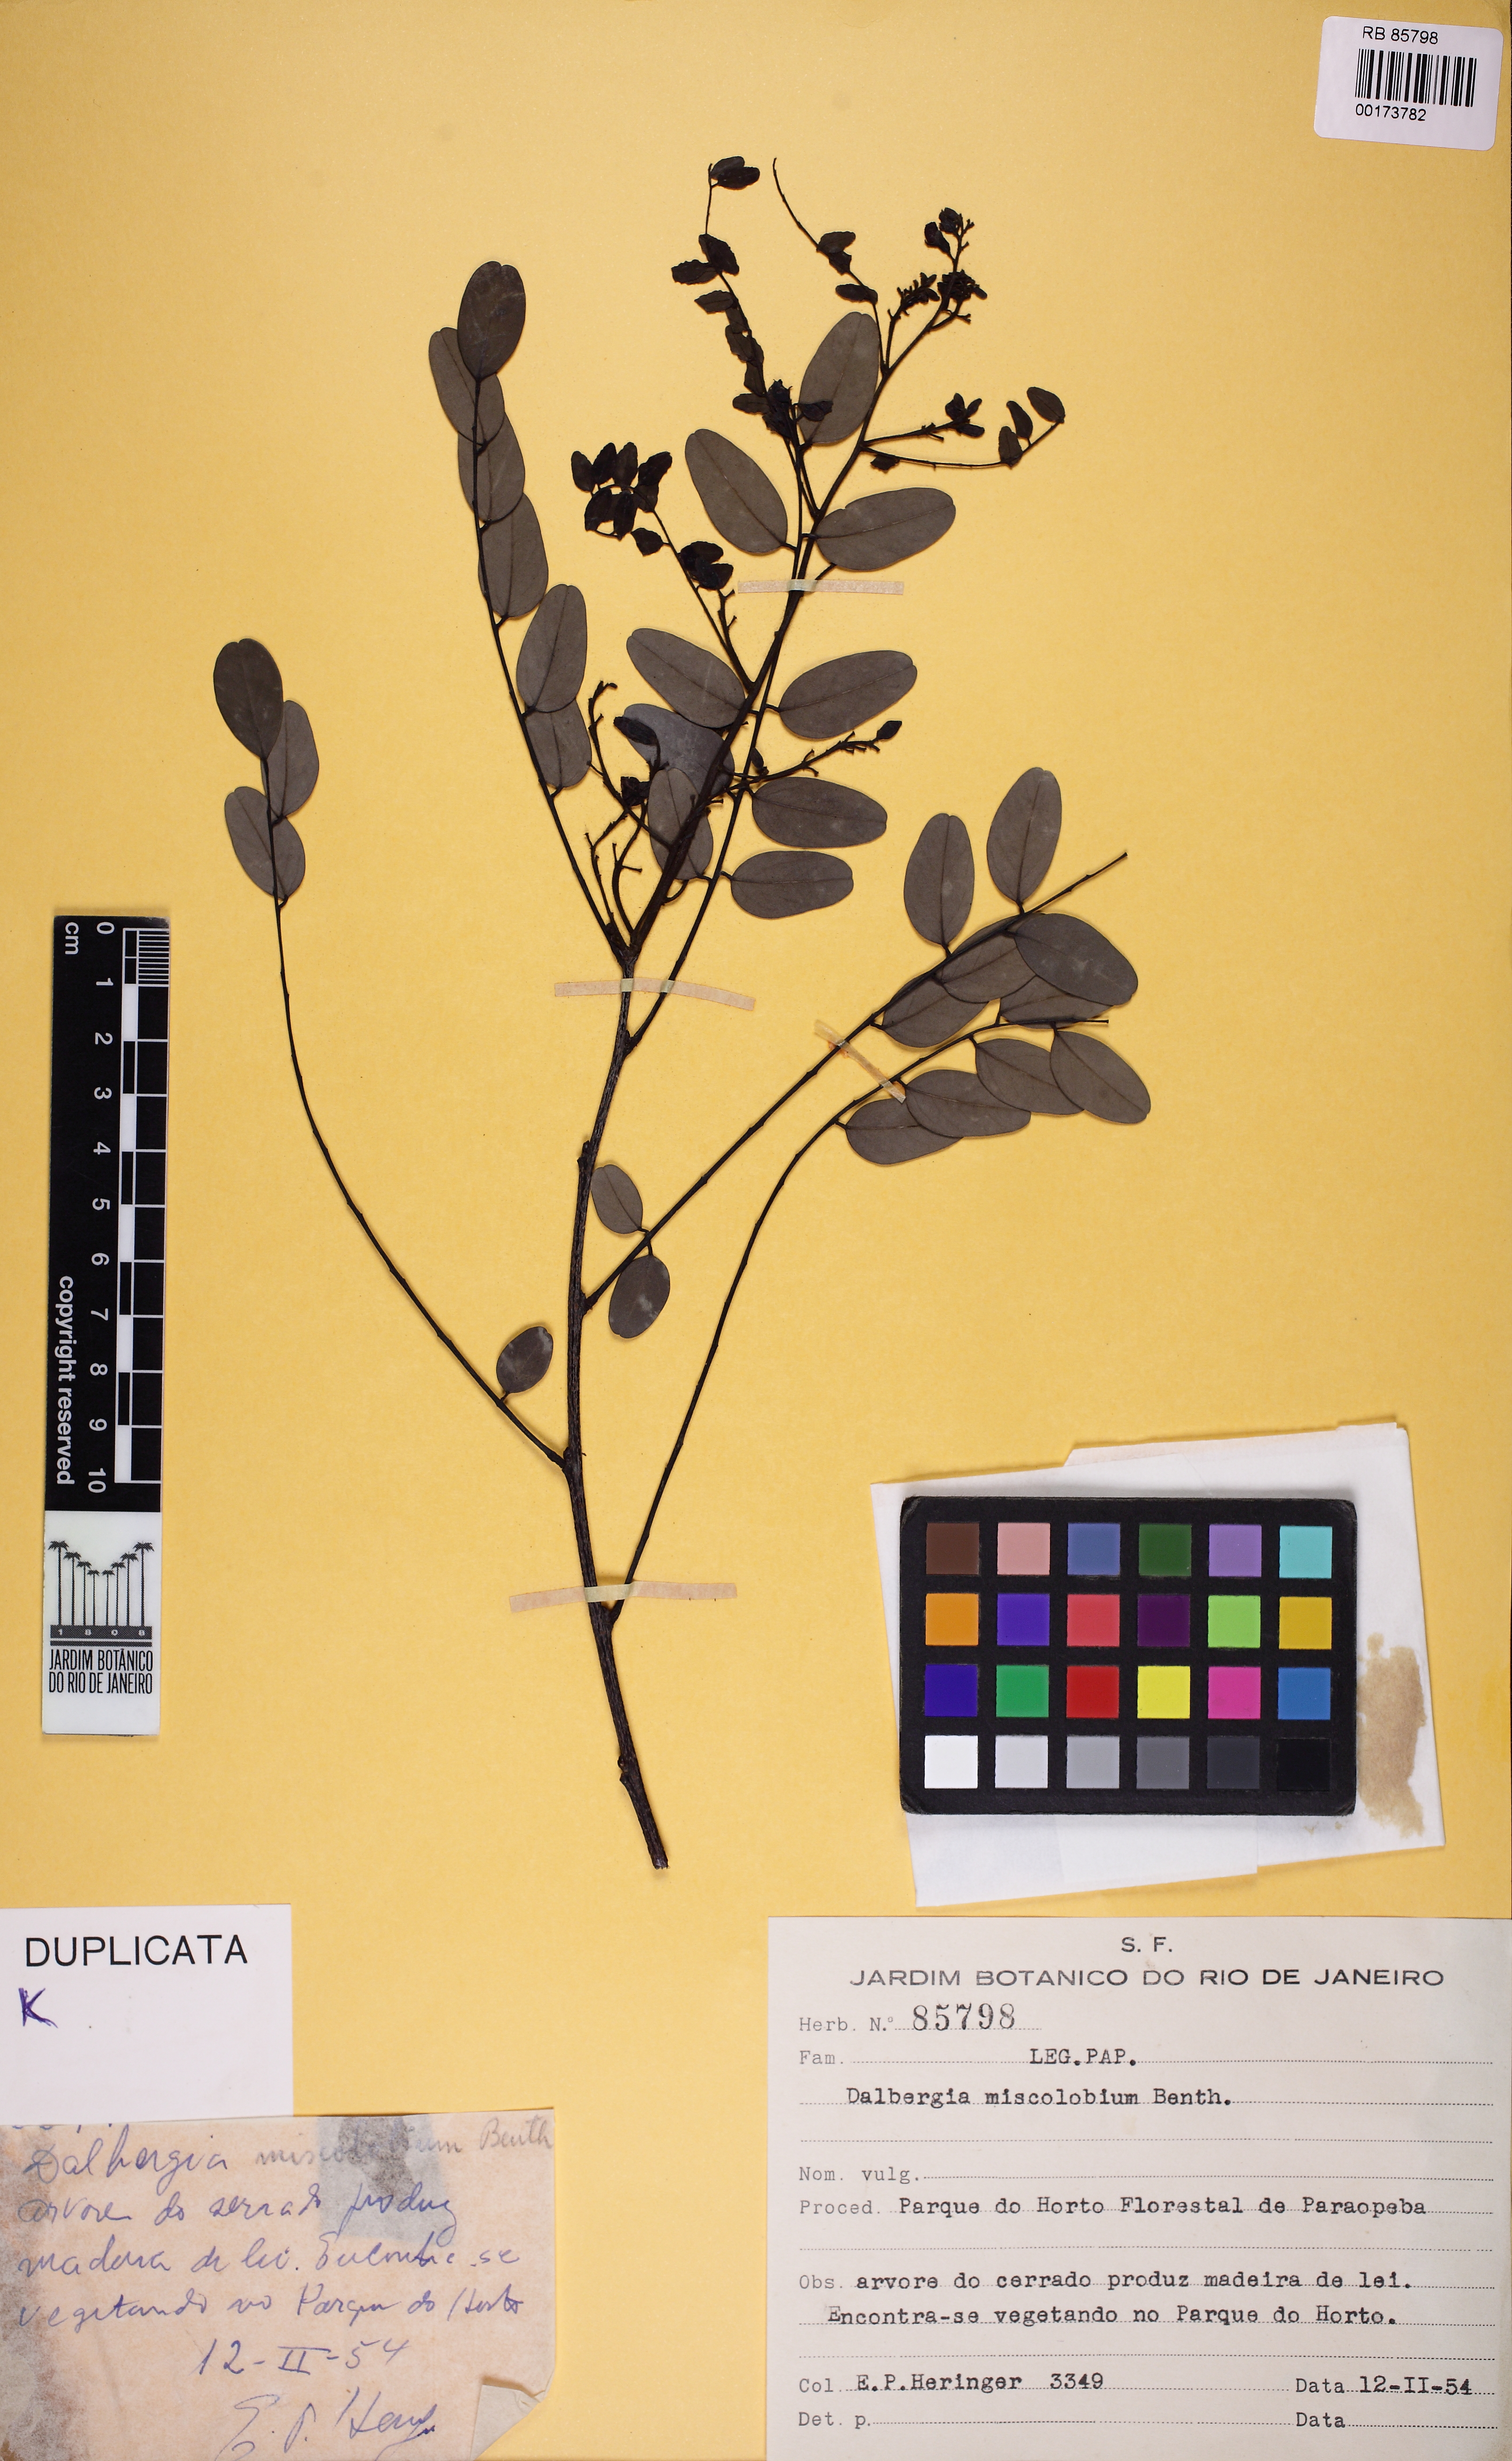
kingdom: Plantae
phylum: Tracheophyta
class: Magnoliopsida
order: Fabales
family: Fabaceae
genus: Dalbergia
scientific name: Dalbergia miscolobium
